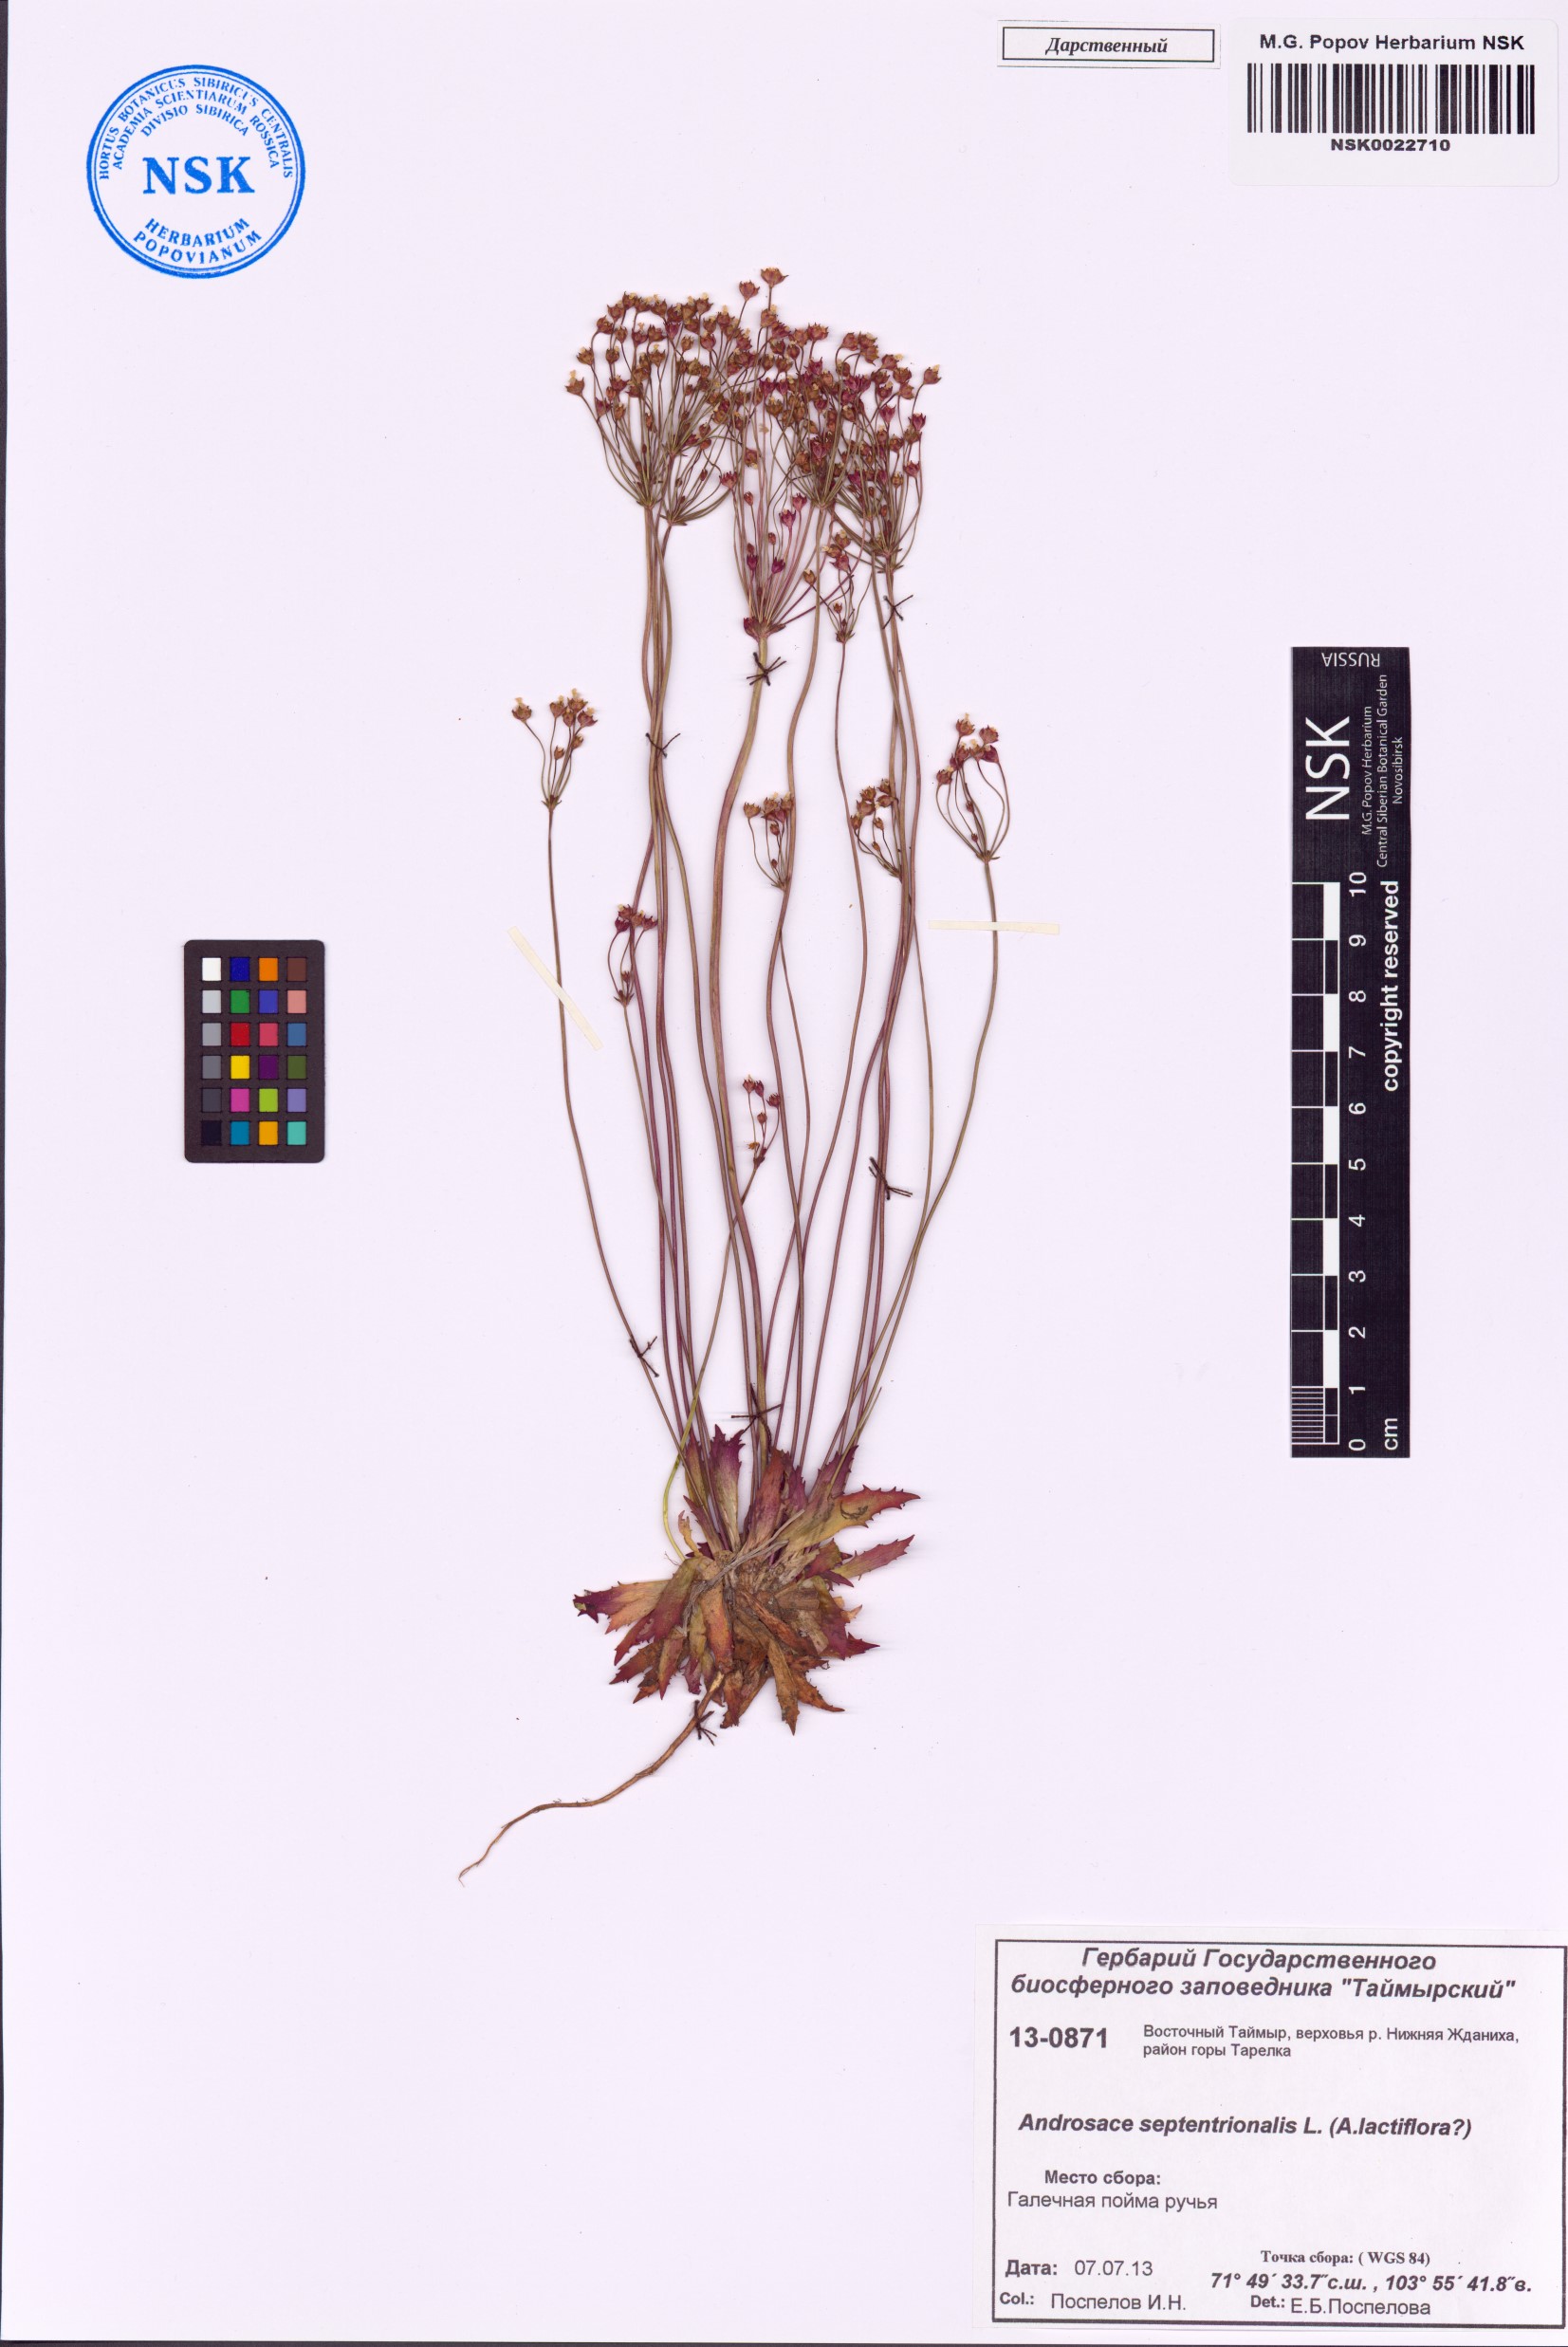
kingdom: Plantae
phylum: Tracheophyta
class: Magnoliopsida
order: Ericales
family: Primulaceae
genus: Androsace
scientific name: Androsace septentrionalis
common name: Hairy northern fairy-candelabra
